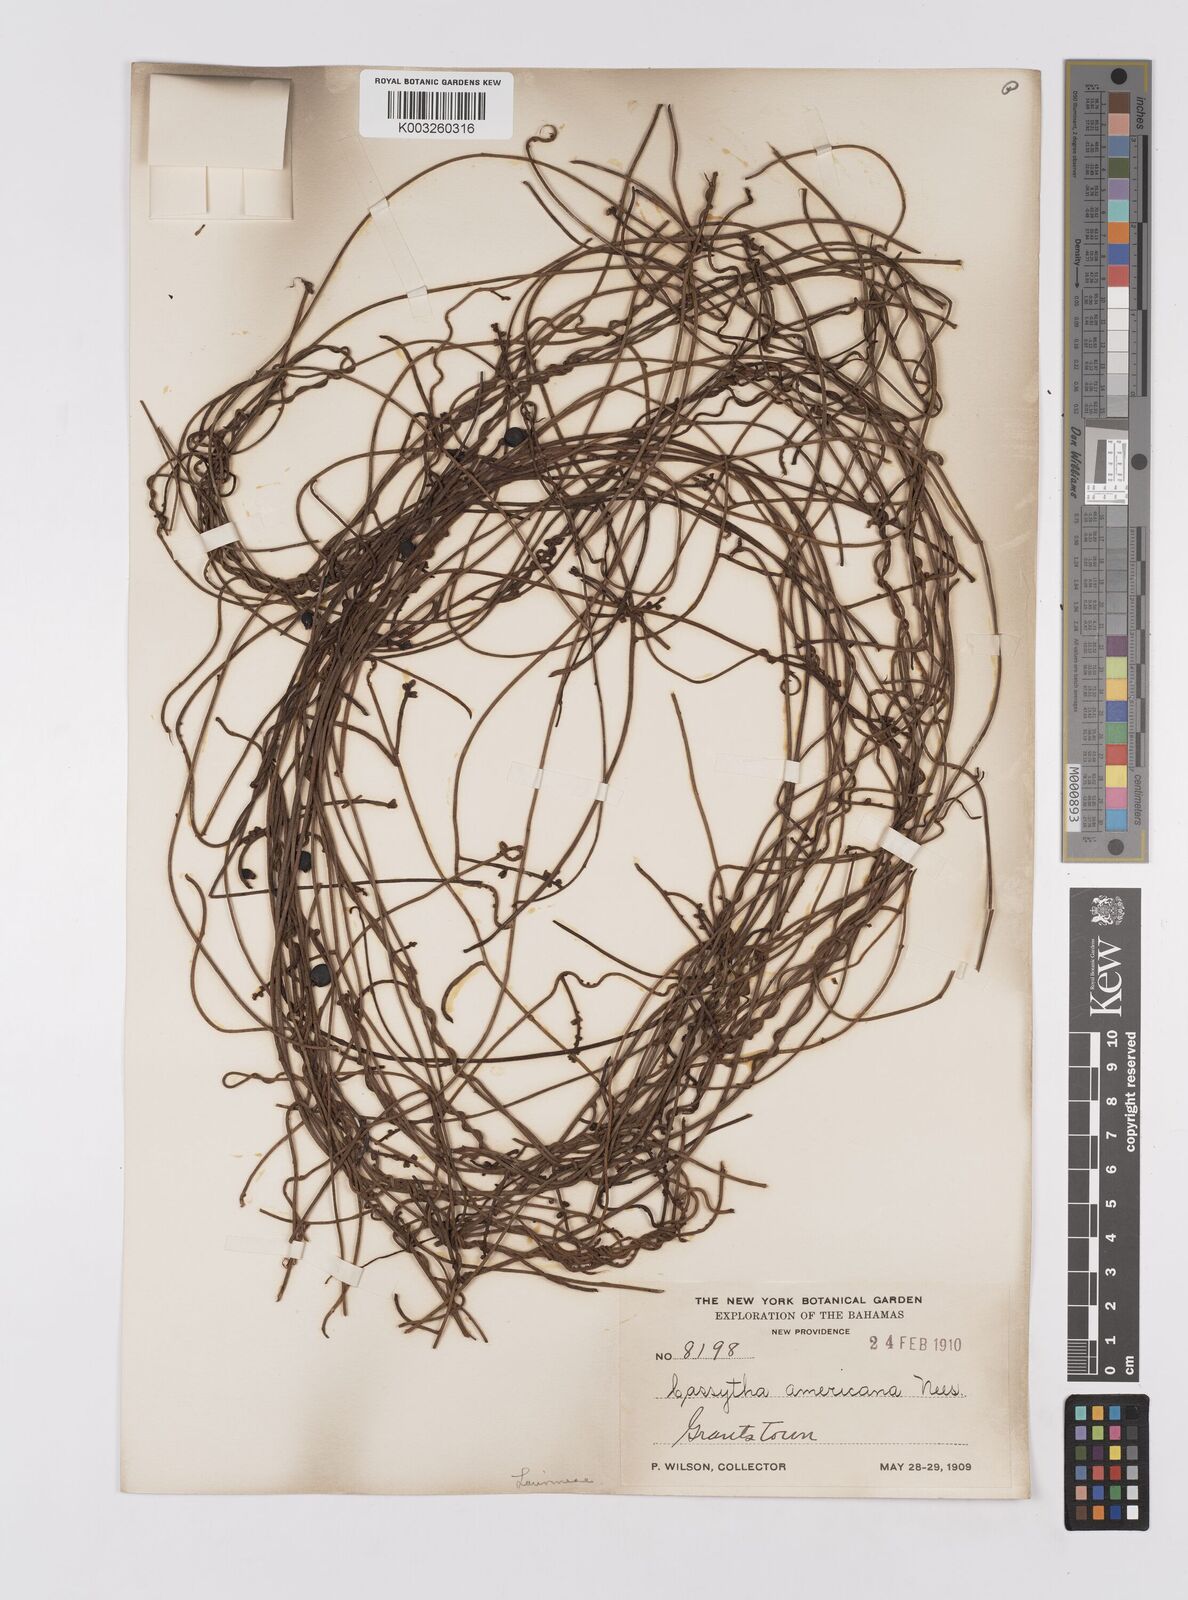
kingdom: Plantae
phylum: Tracheophyta
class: Magnoliopsida
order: Laurales
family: Lauraceae
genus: Cassytha
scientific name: Cassytha filiformis
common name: Dodder-laurel
